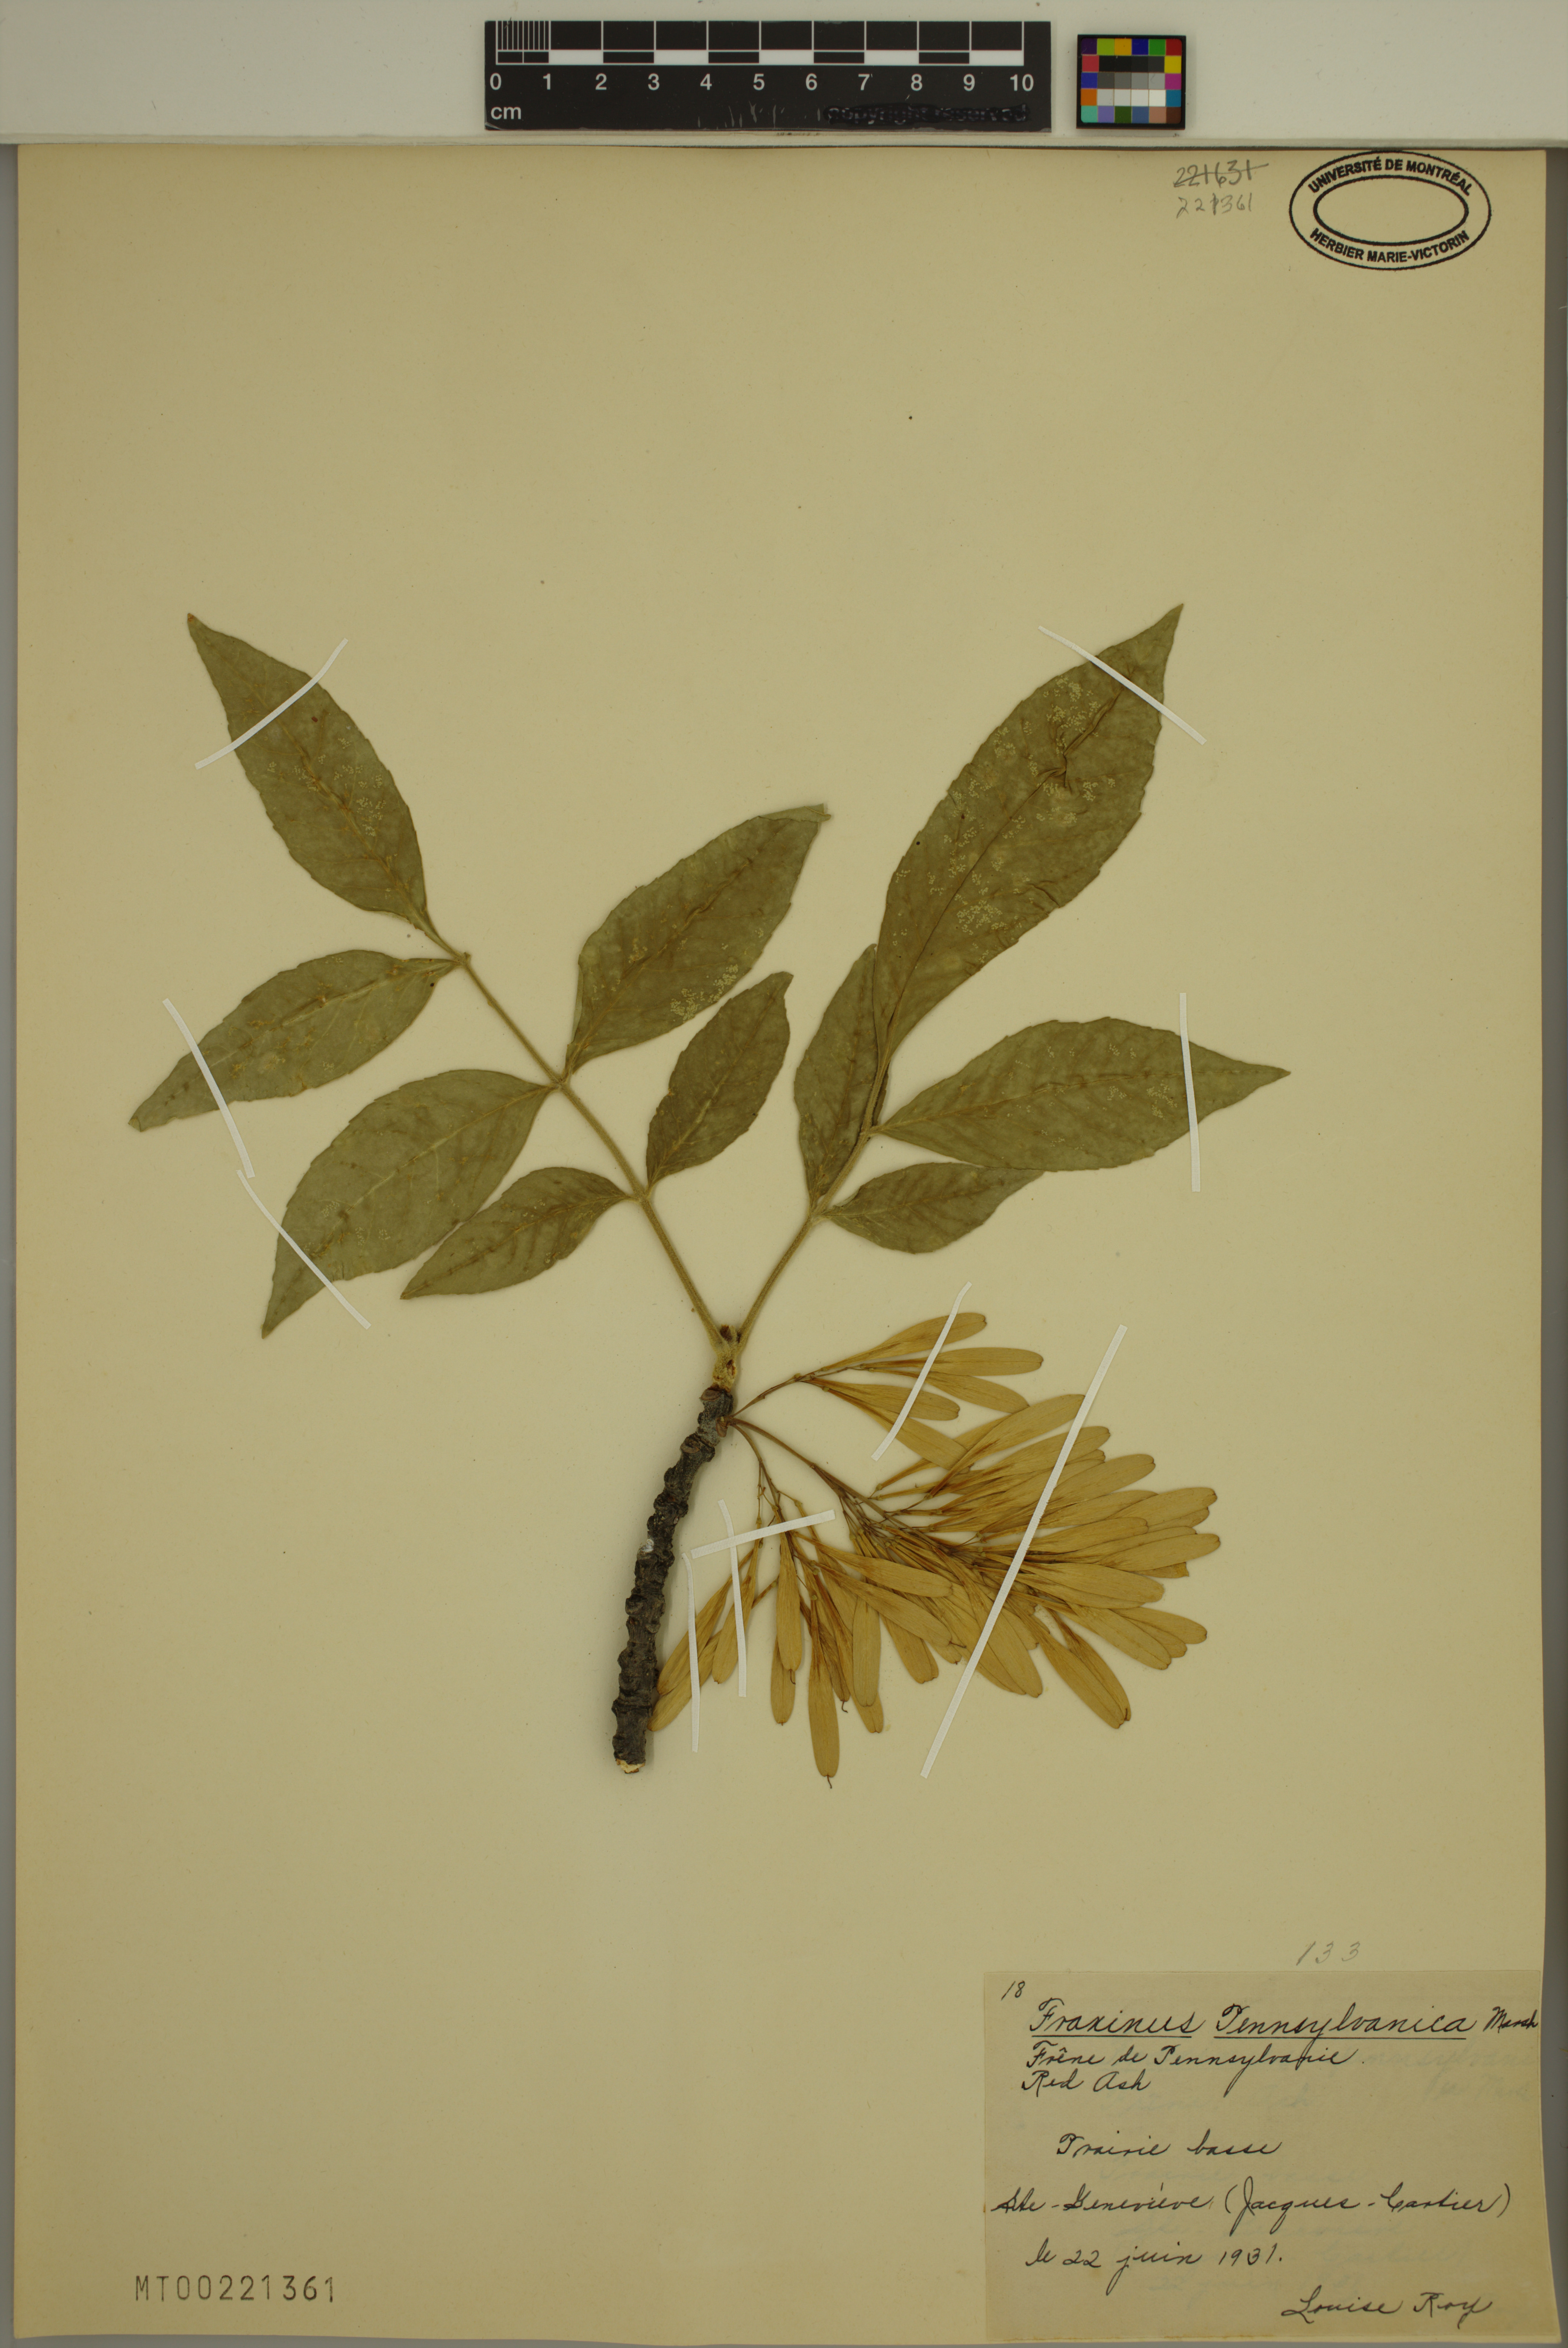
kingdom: Plantae
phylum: Tracheophyta
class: Magnoliopsida
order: Lamiales
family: Oleaceae
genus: Fraxinus
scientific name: Fraxinus pennsylvanica
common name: Green ash
